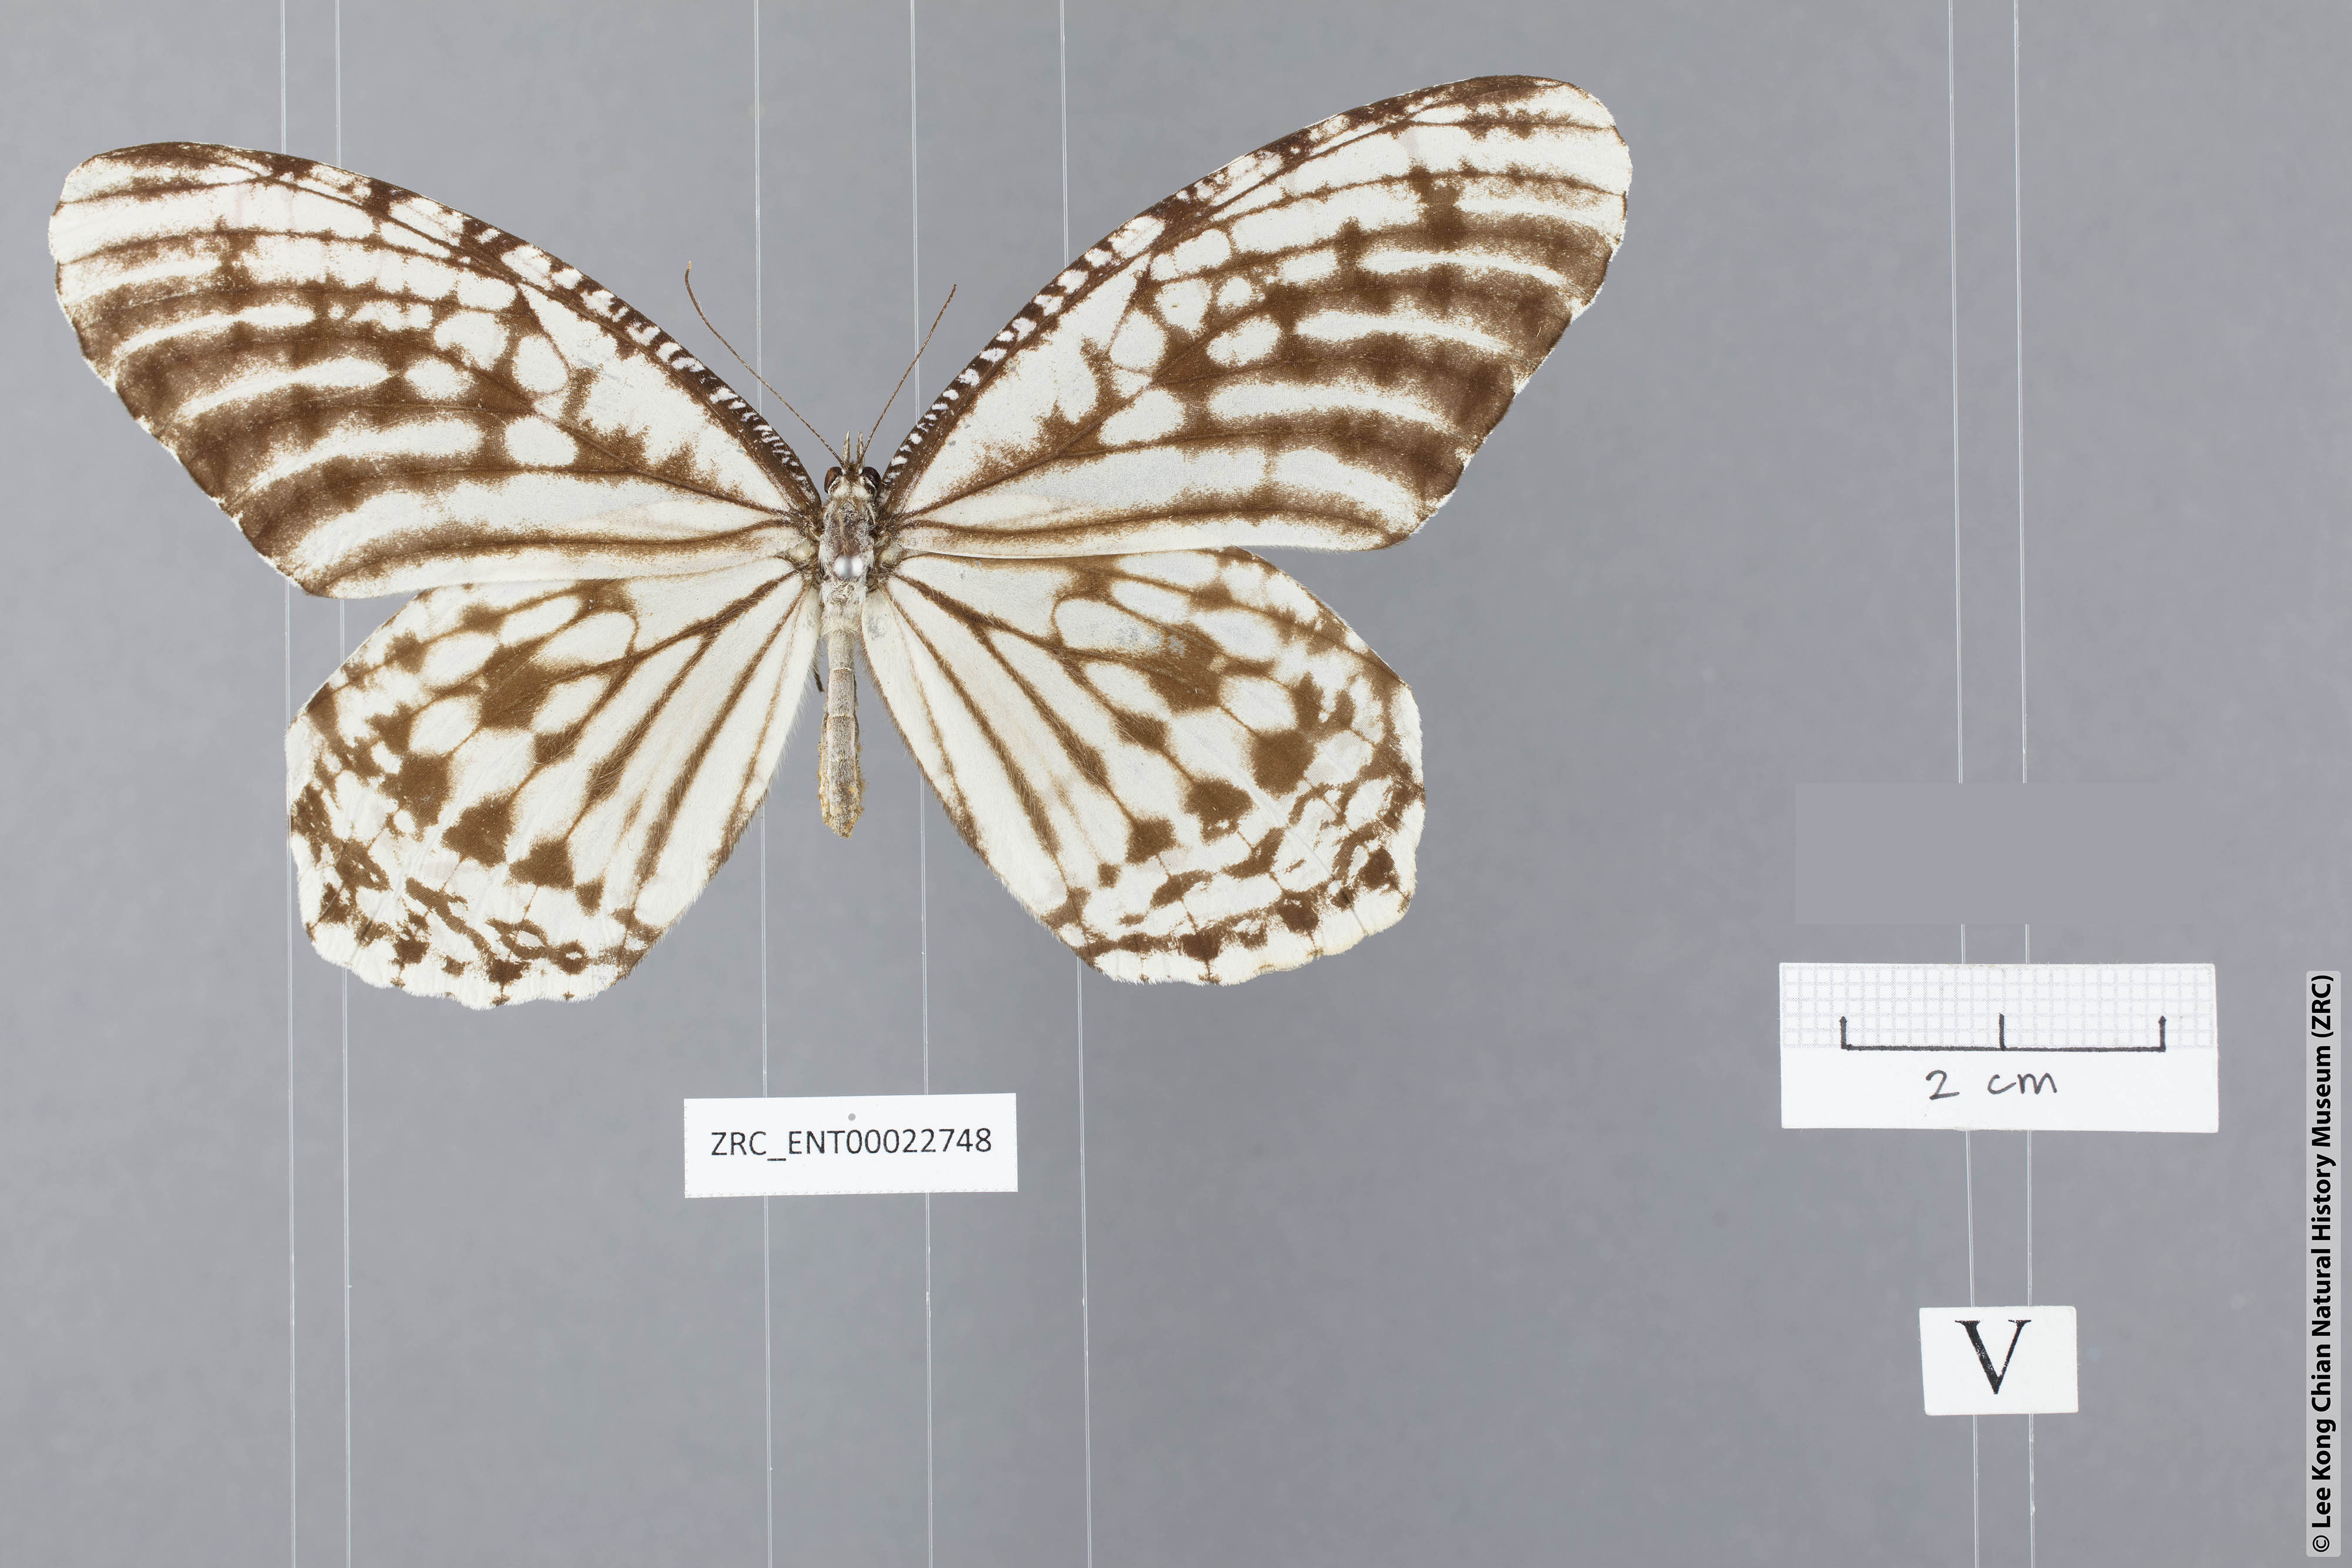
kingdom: Animalia
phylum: Arthropoda
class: Insecta
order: Lepidoptera
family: Nymphalidae
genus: Elymnias
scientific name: Elymnias kuenstleri
